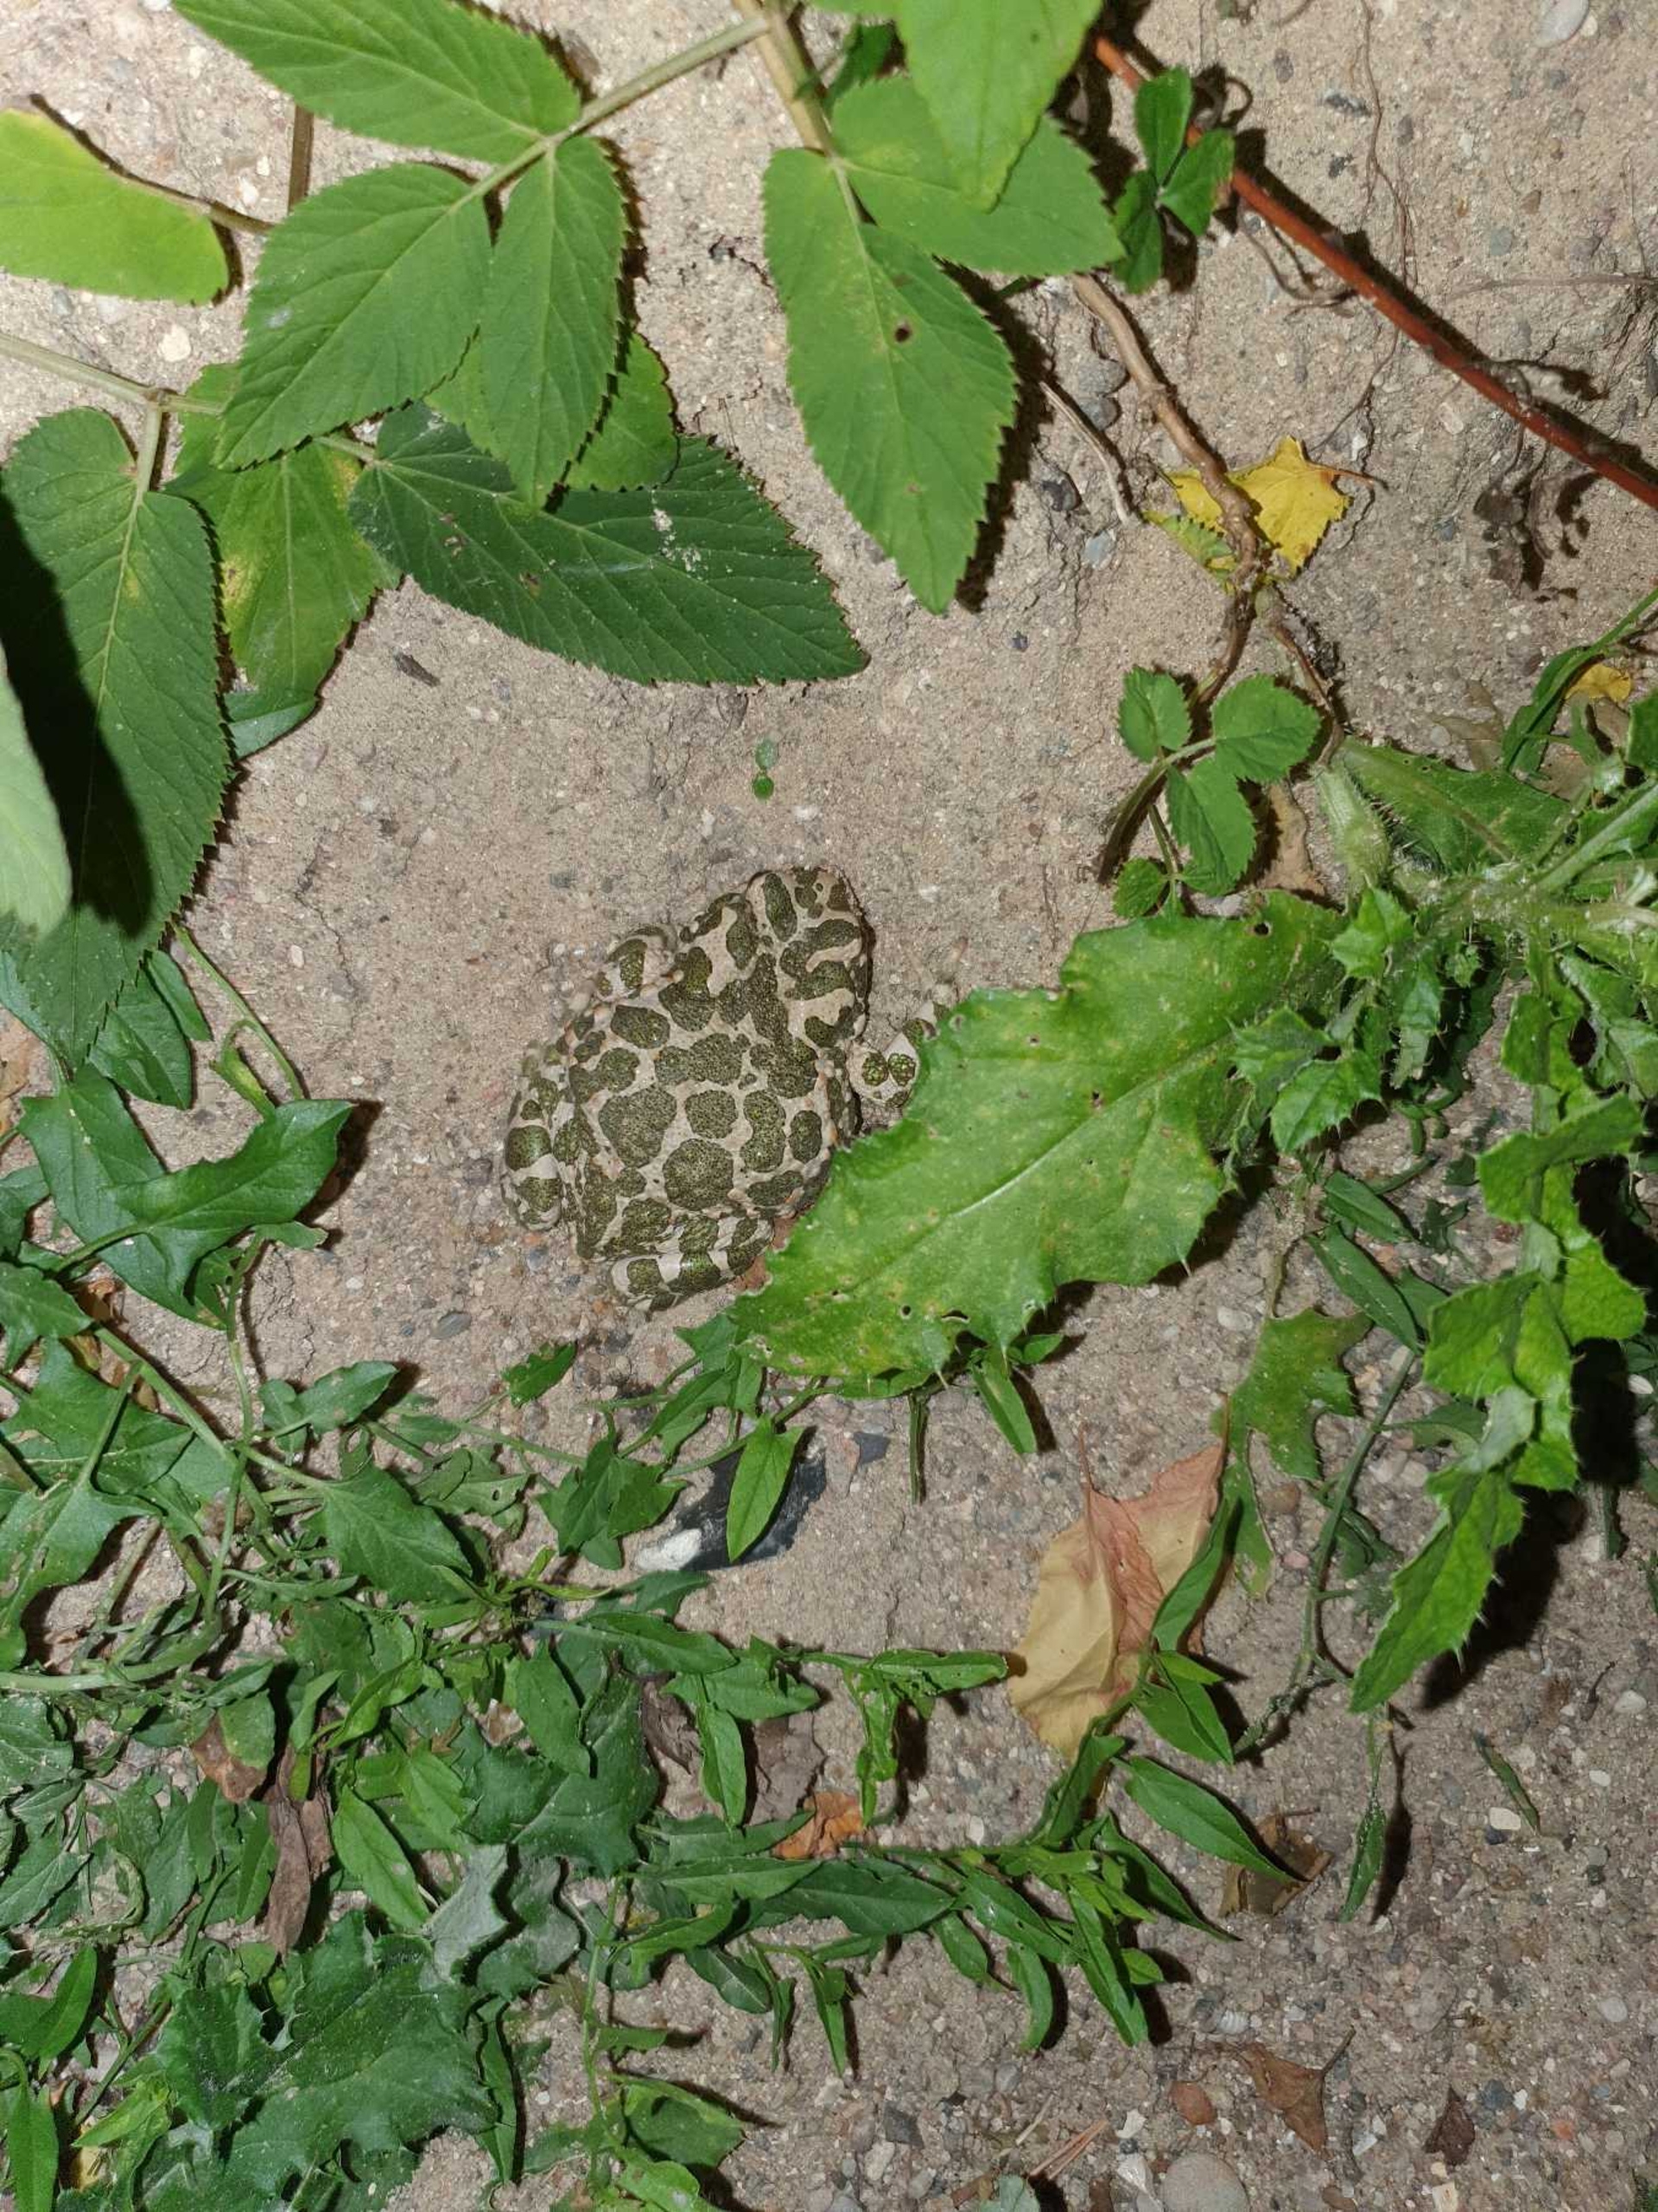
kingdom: Animalia
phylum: Chordata
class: Amphibia
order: Anura
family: Bufonidae
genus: Bufotes
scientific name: Bufotes viridis
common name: Grønbroget tudse
